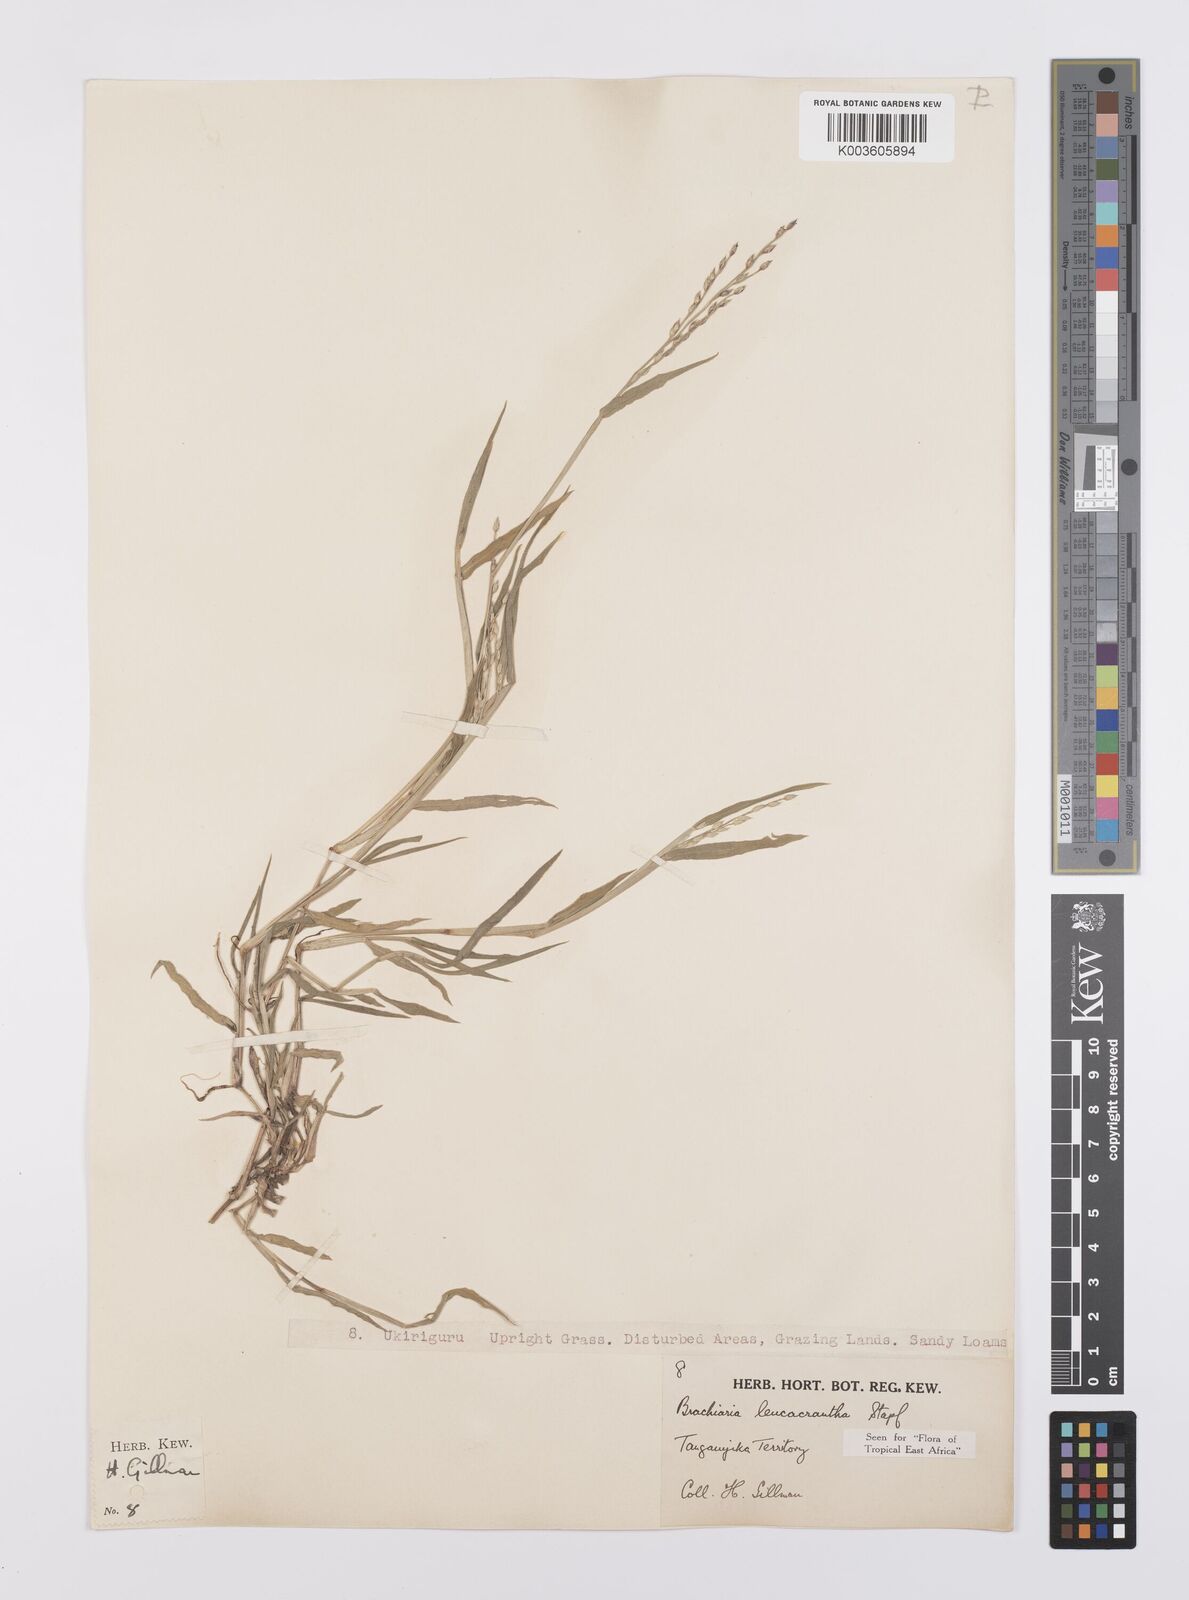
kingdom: Plantae
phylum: Tracheophyta
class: Liliopsida
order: Poales
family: Poaceae
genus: Urochloa
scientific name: Urochloa xantholeuca
